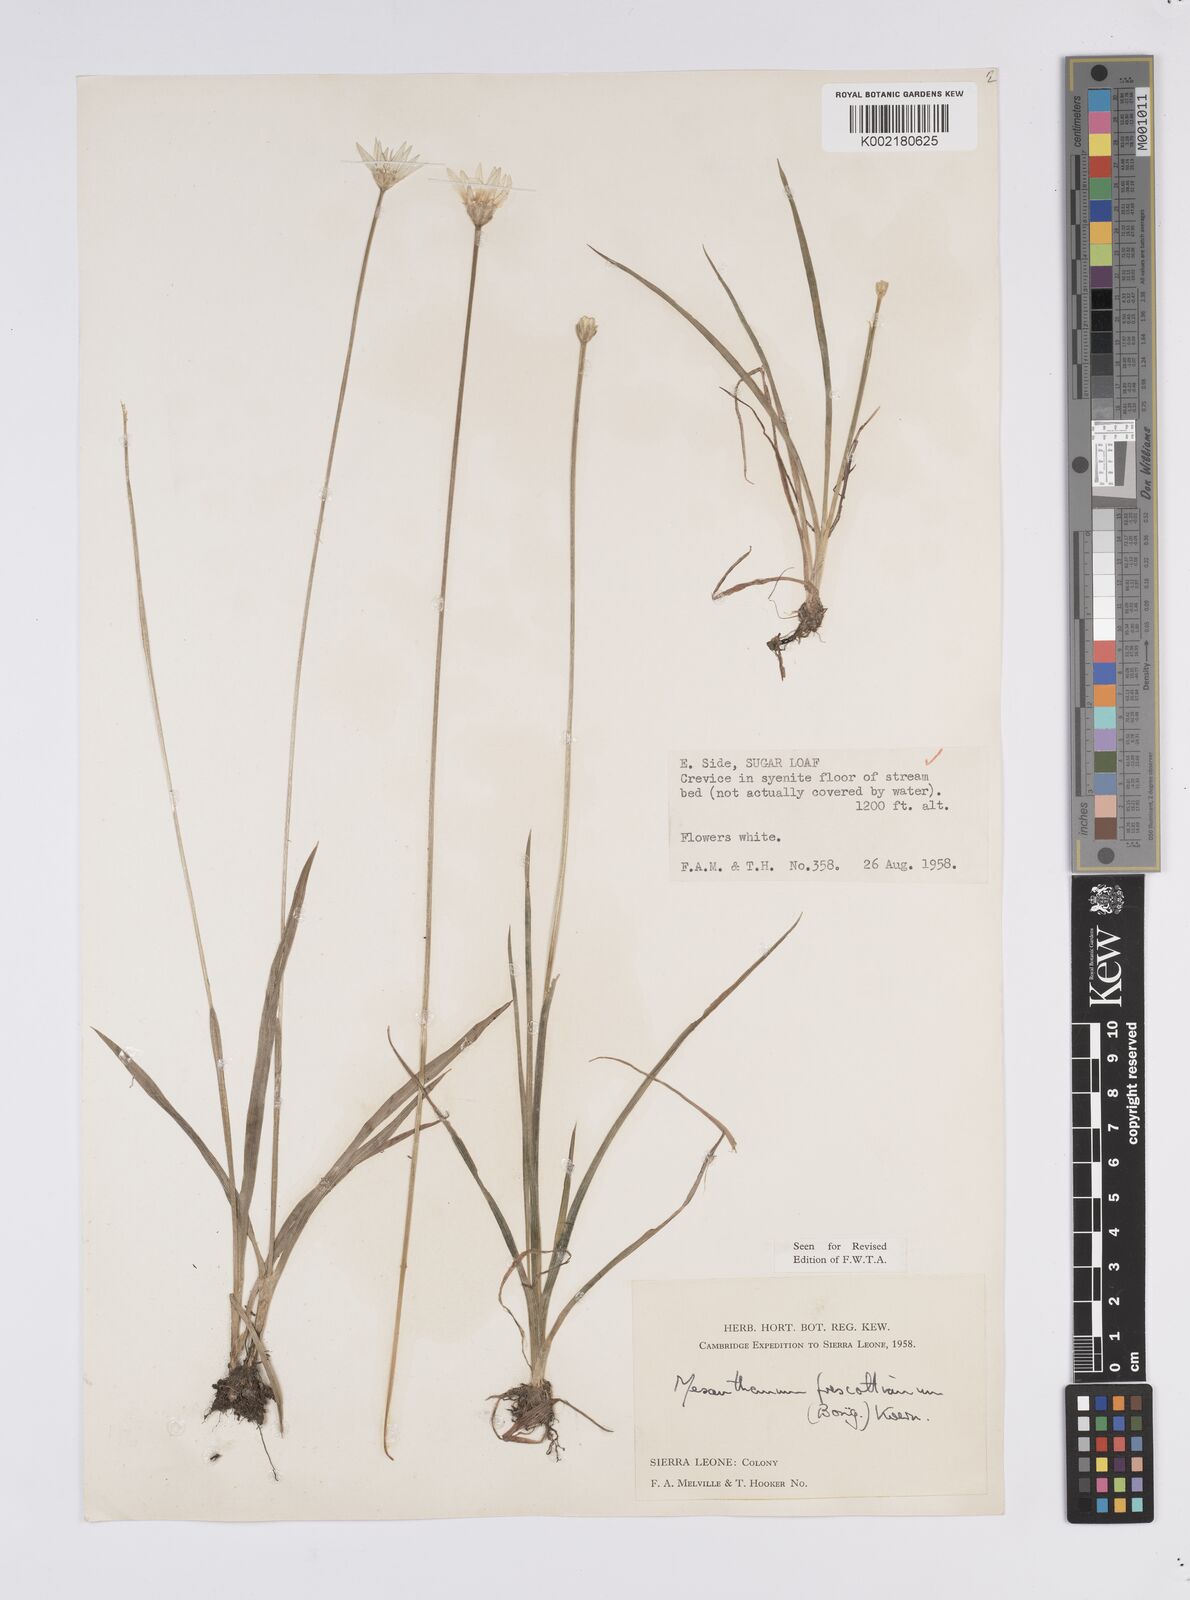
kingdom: Plantae
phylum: Tracheophyta
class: Liliopsida
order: Poales
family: Eriocaulaceae
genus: Mesanthemum
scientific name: Mesanthemum prescottianum
